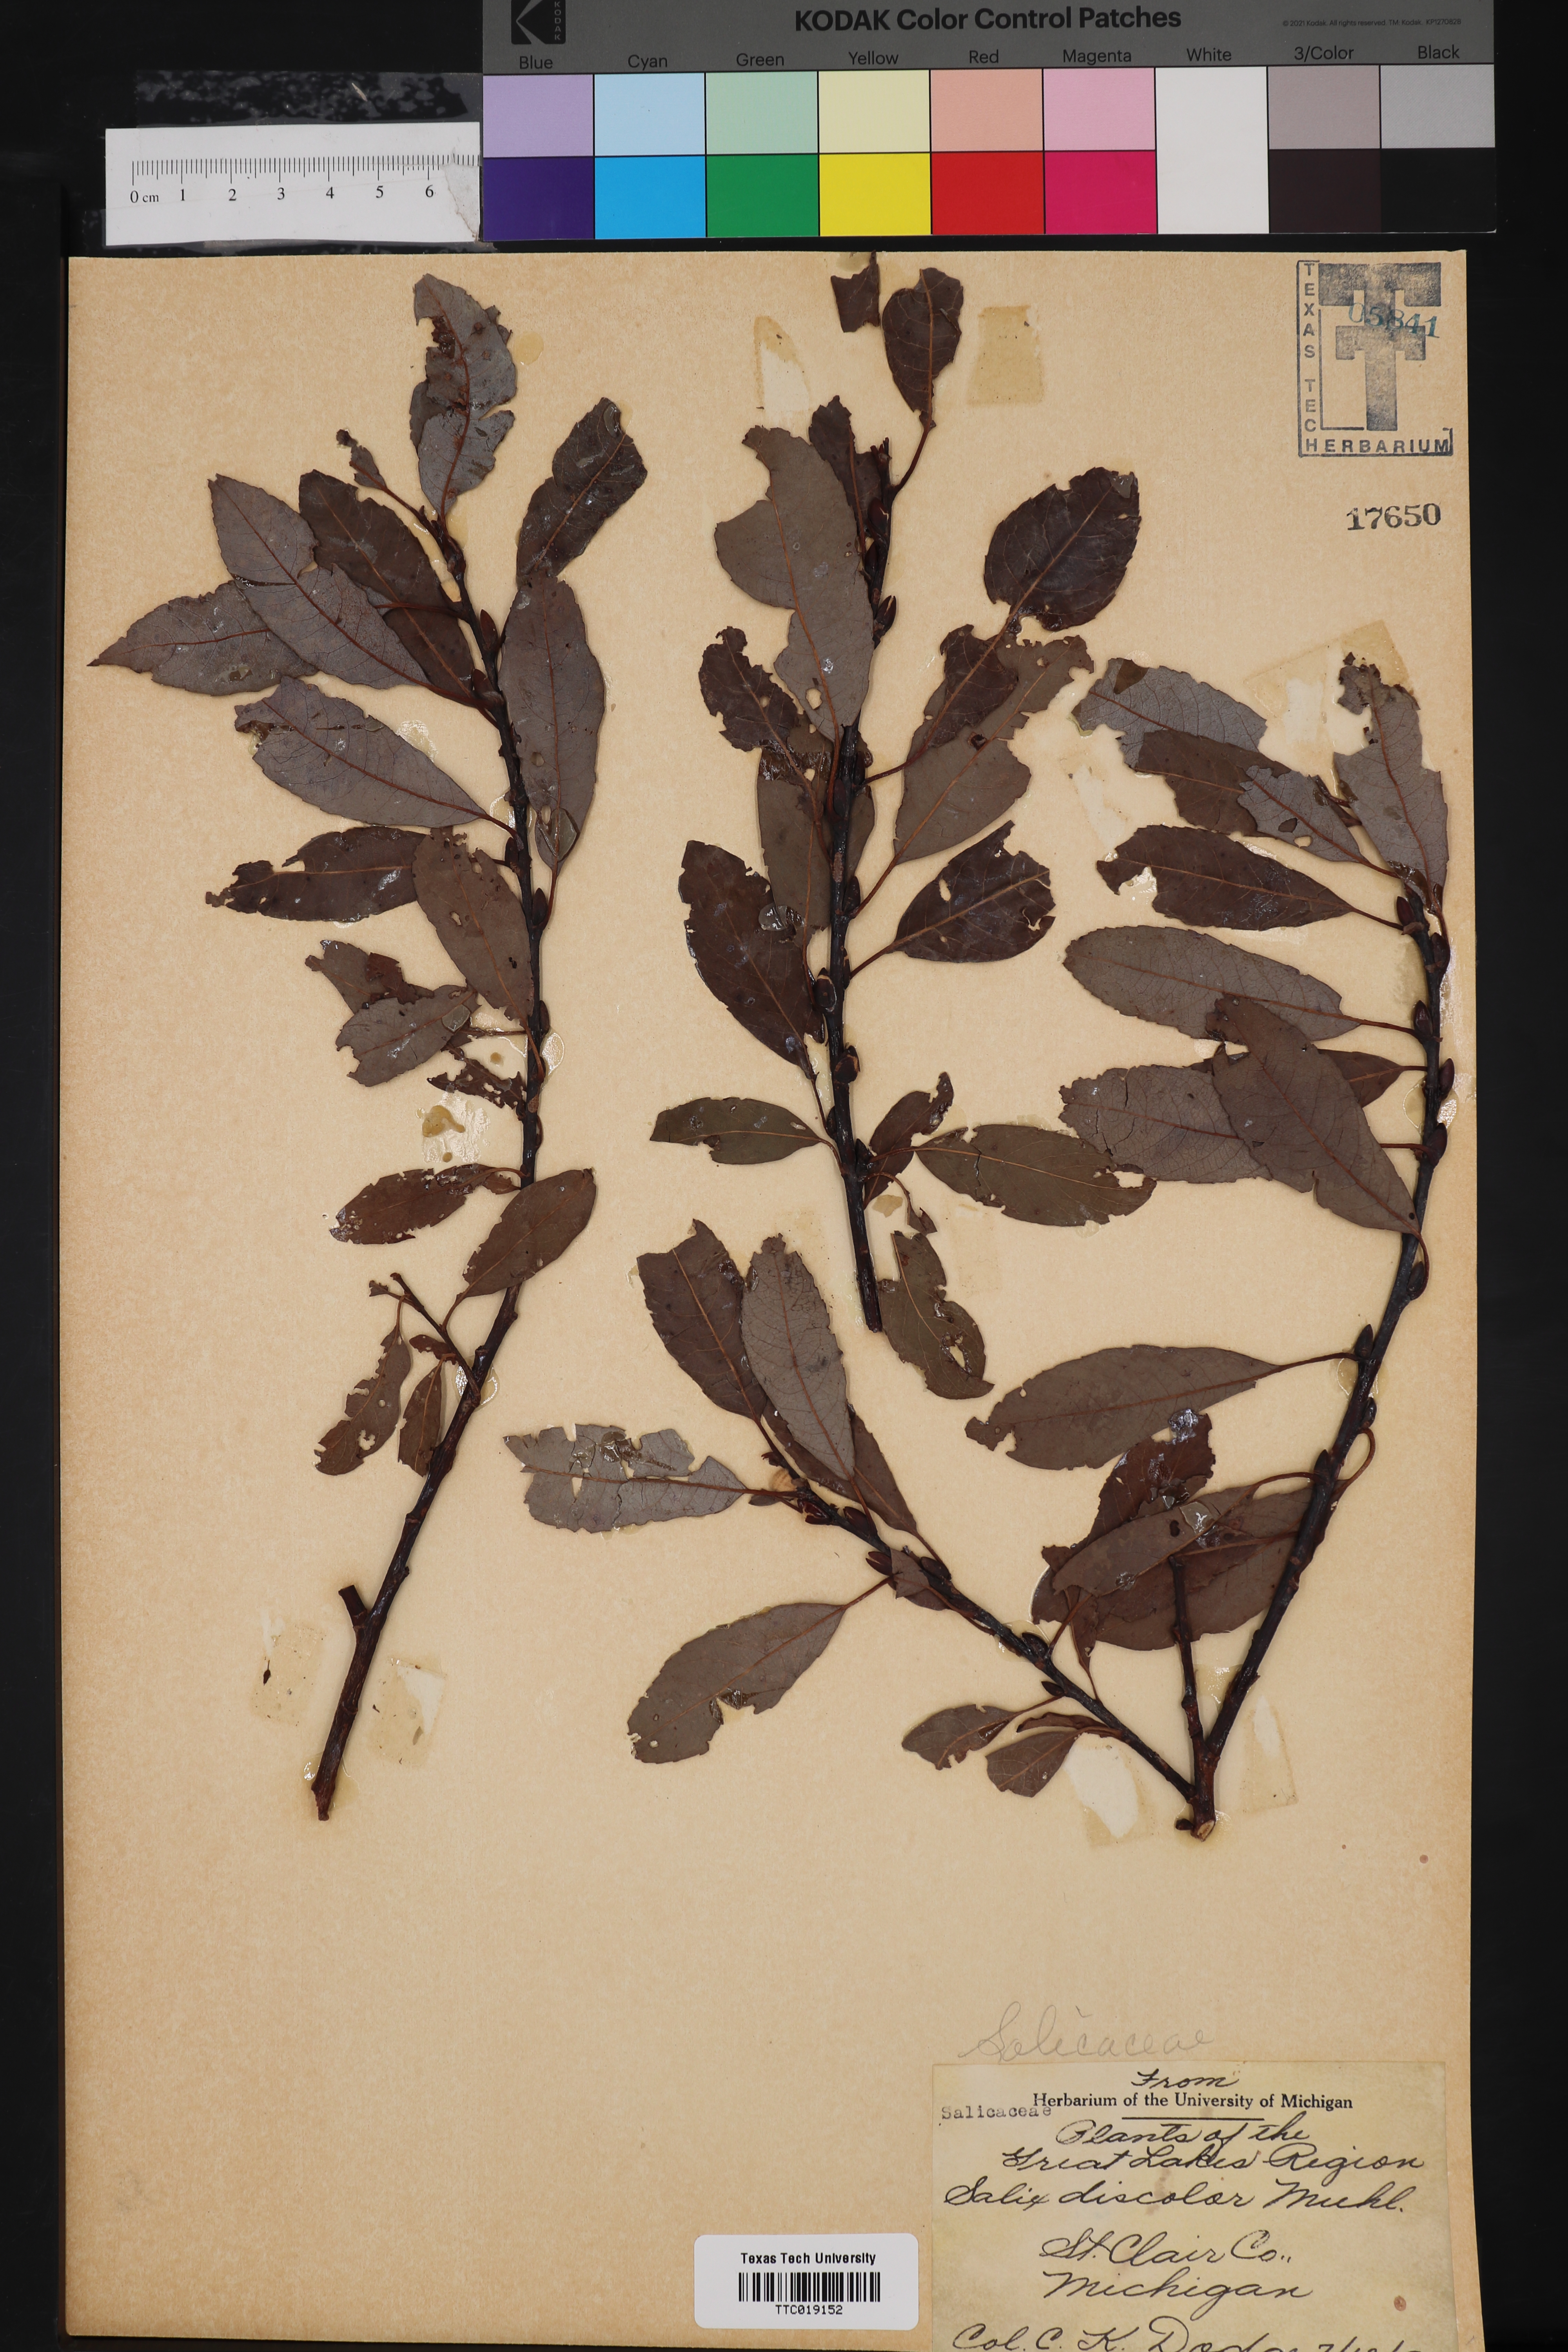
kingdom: Plantae
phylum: Tracheophyta
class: Magnoliopsida
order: Malpighiales
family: Salicaceae
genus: Salix
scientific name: Salix discolor
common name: Glaucous willow
